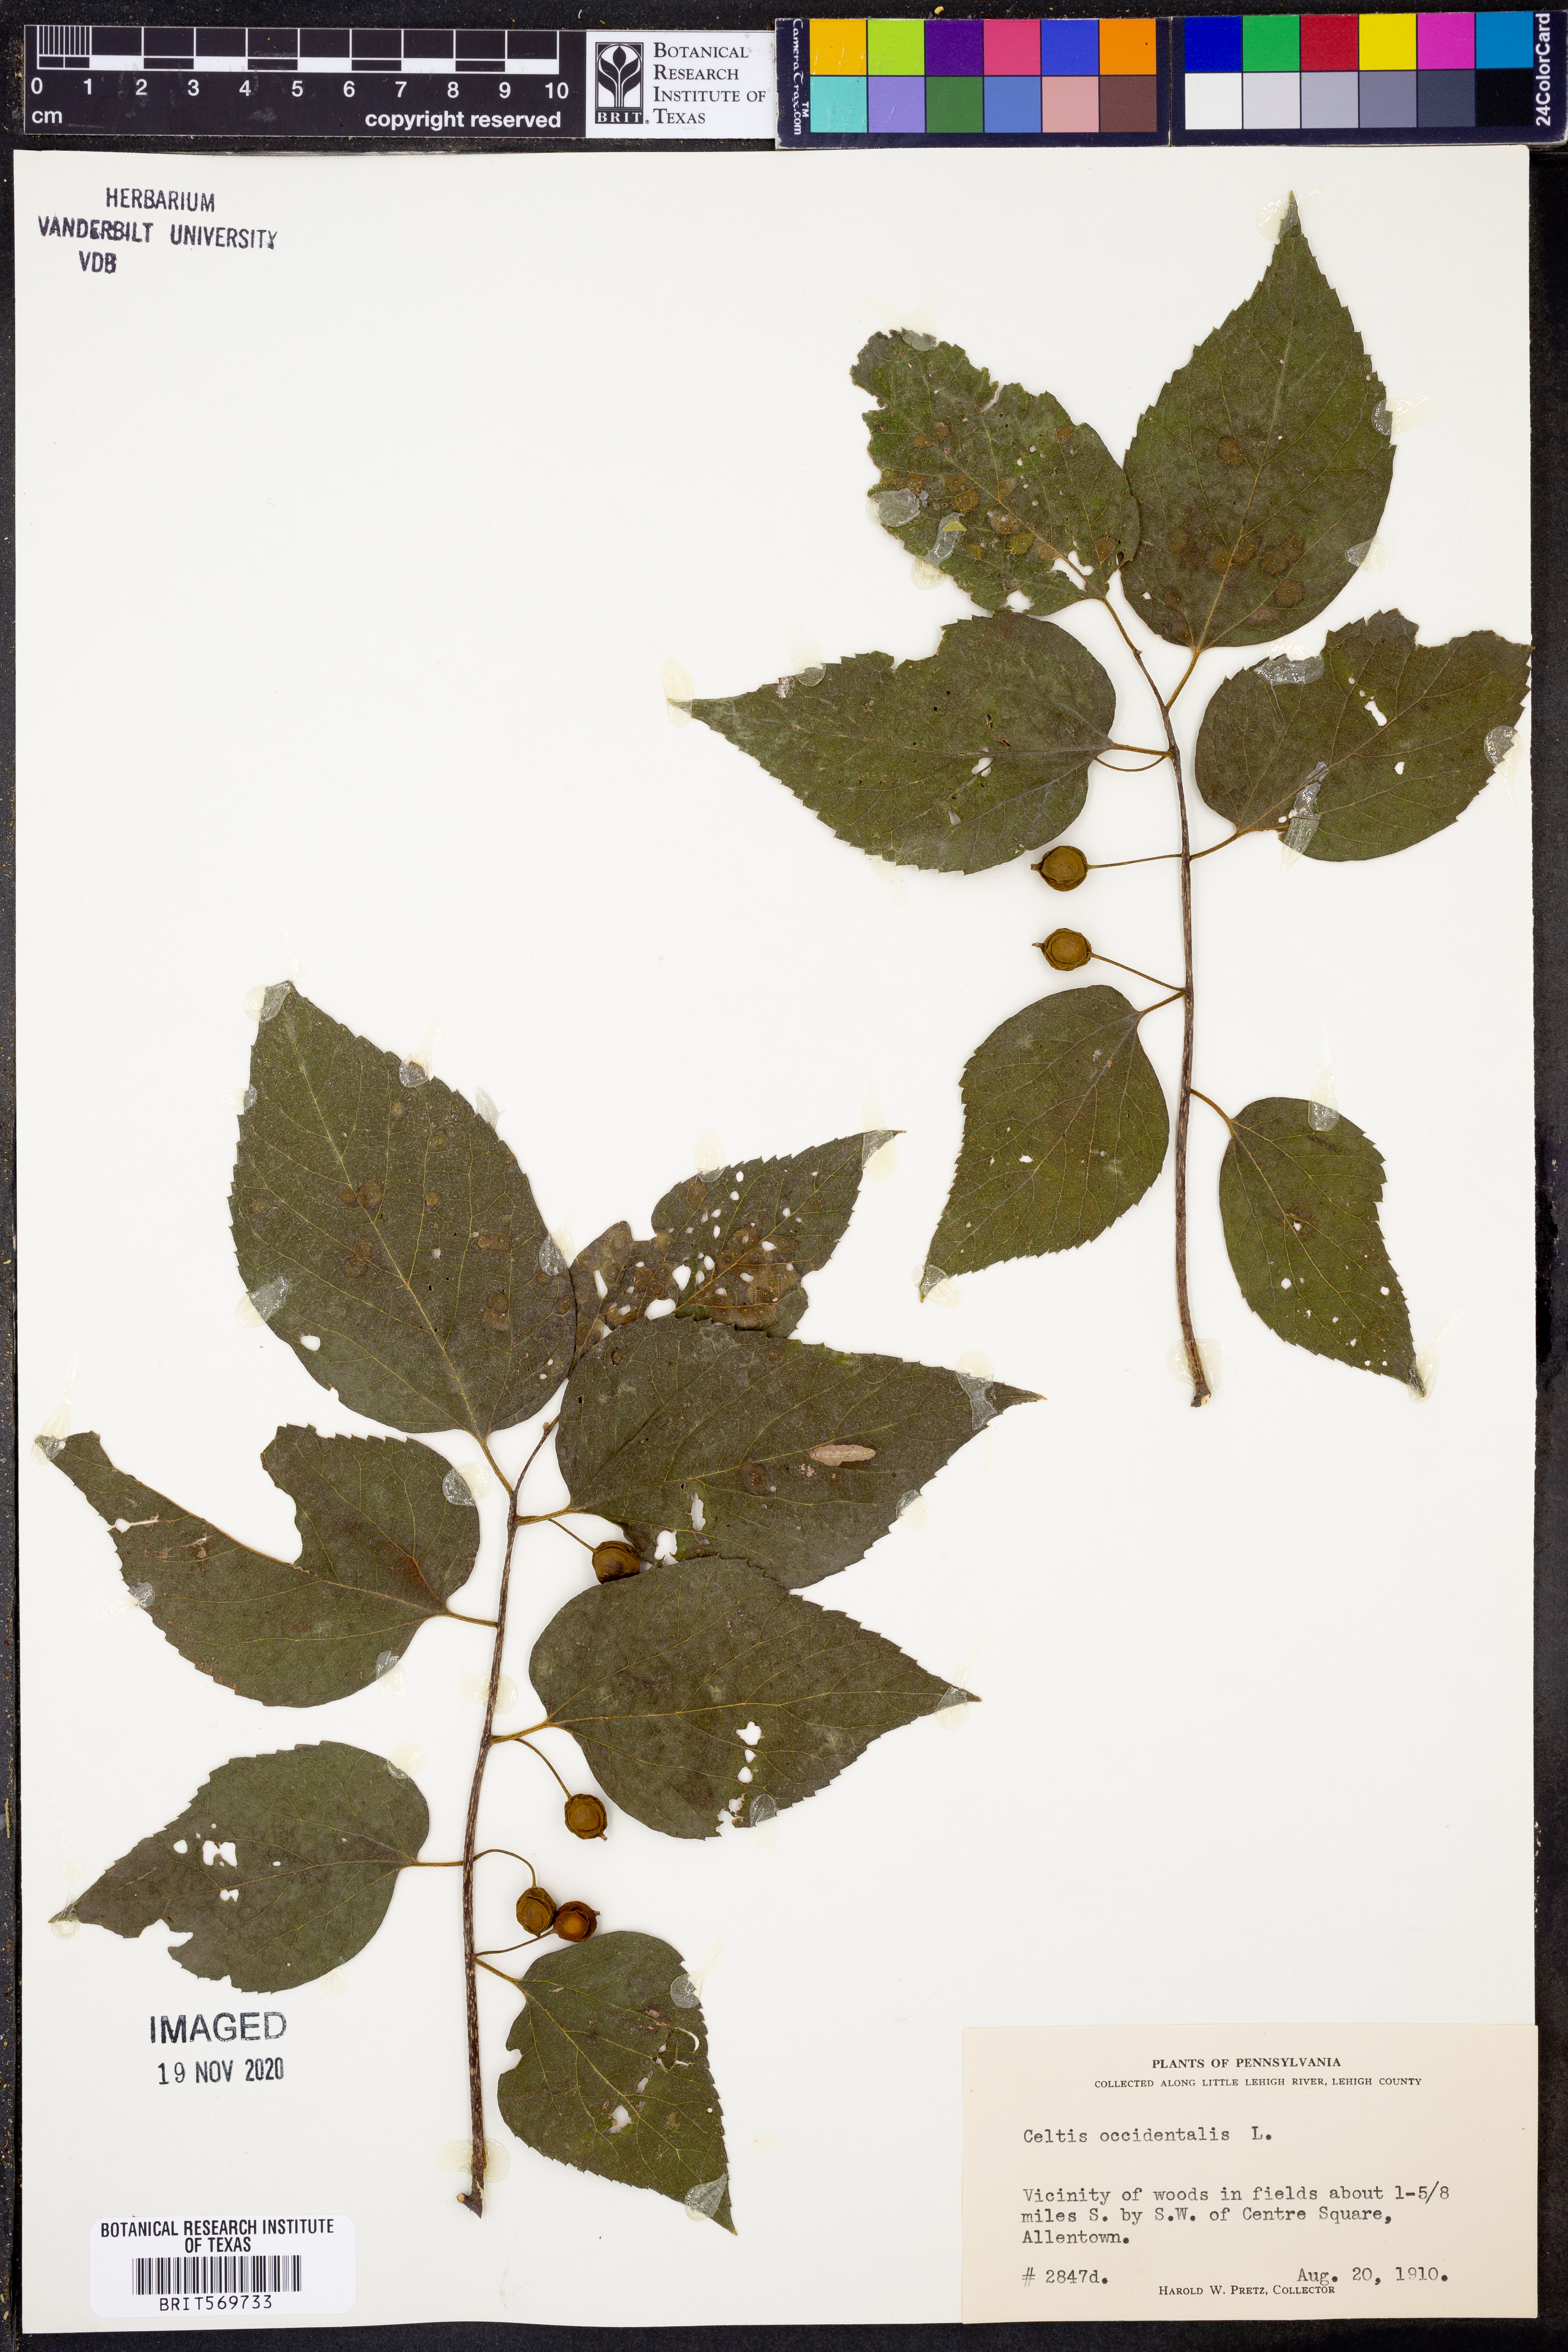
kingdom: Plantae
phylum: Tracheophyta
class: Magnoliopsida
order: Rosales
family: Cannabaceae
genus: Celtis
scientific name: Celtis occidentalis
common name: Common hackberry
